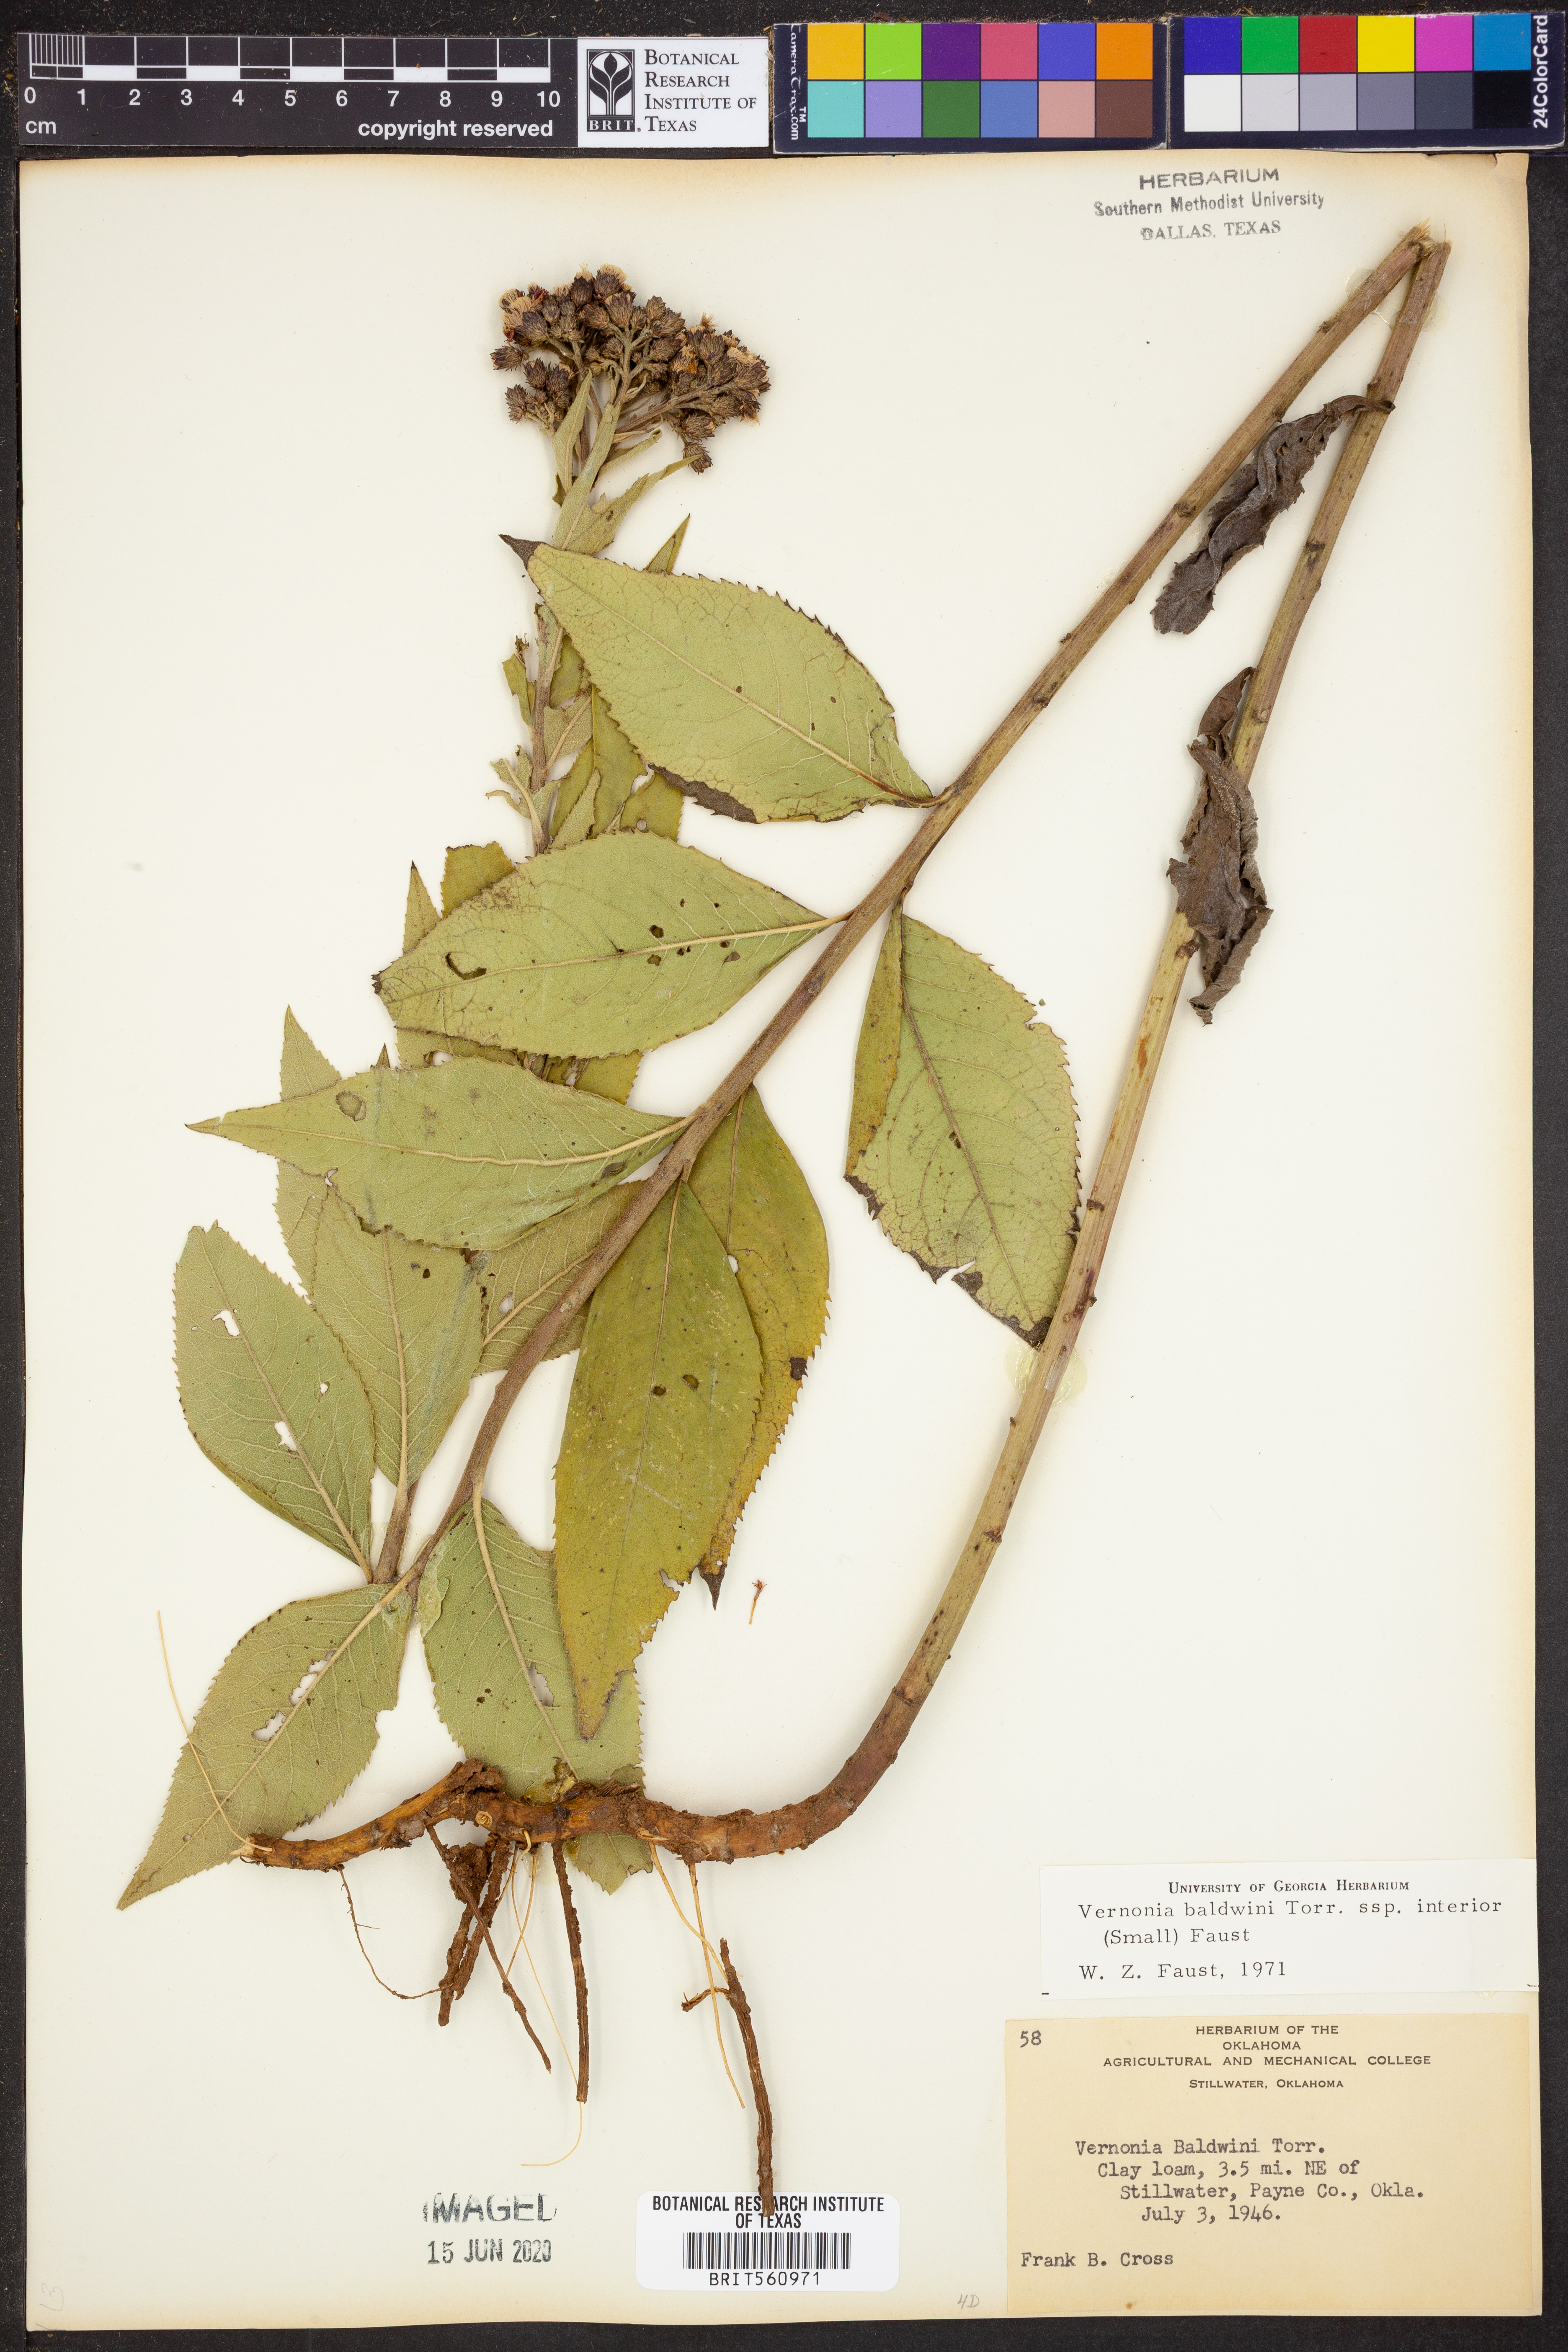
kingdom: Plantae
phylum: Tracheophyta
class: Magnoliopsida
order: Asterales
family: Asteraceae
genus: Vernonia
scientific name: Vernonia baldwinii
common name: Western ironweed
